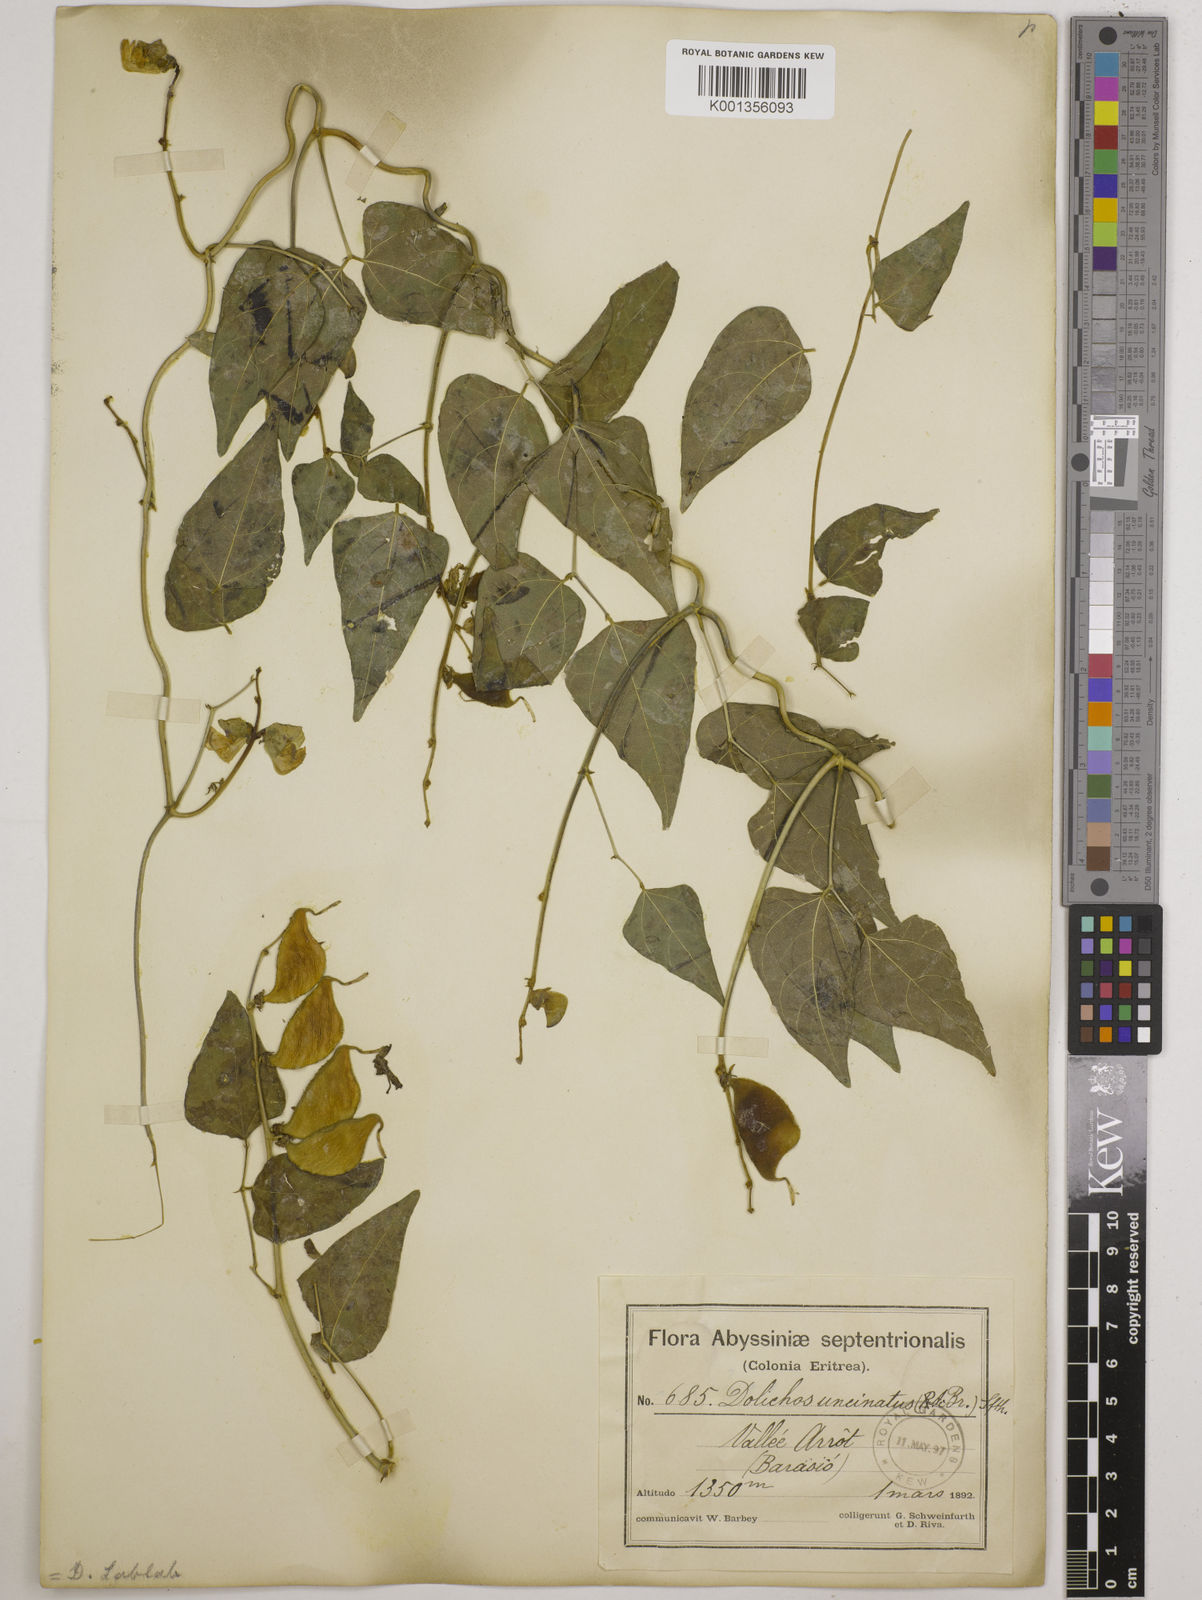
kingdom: Plantae
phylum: Tracheophyta
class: Magnoliopsida
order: Fabales
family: Fabaceae
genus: Lablab
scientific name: Lablab purpureus
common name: Lablab-bean
